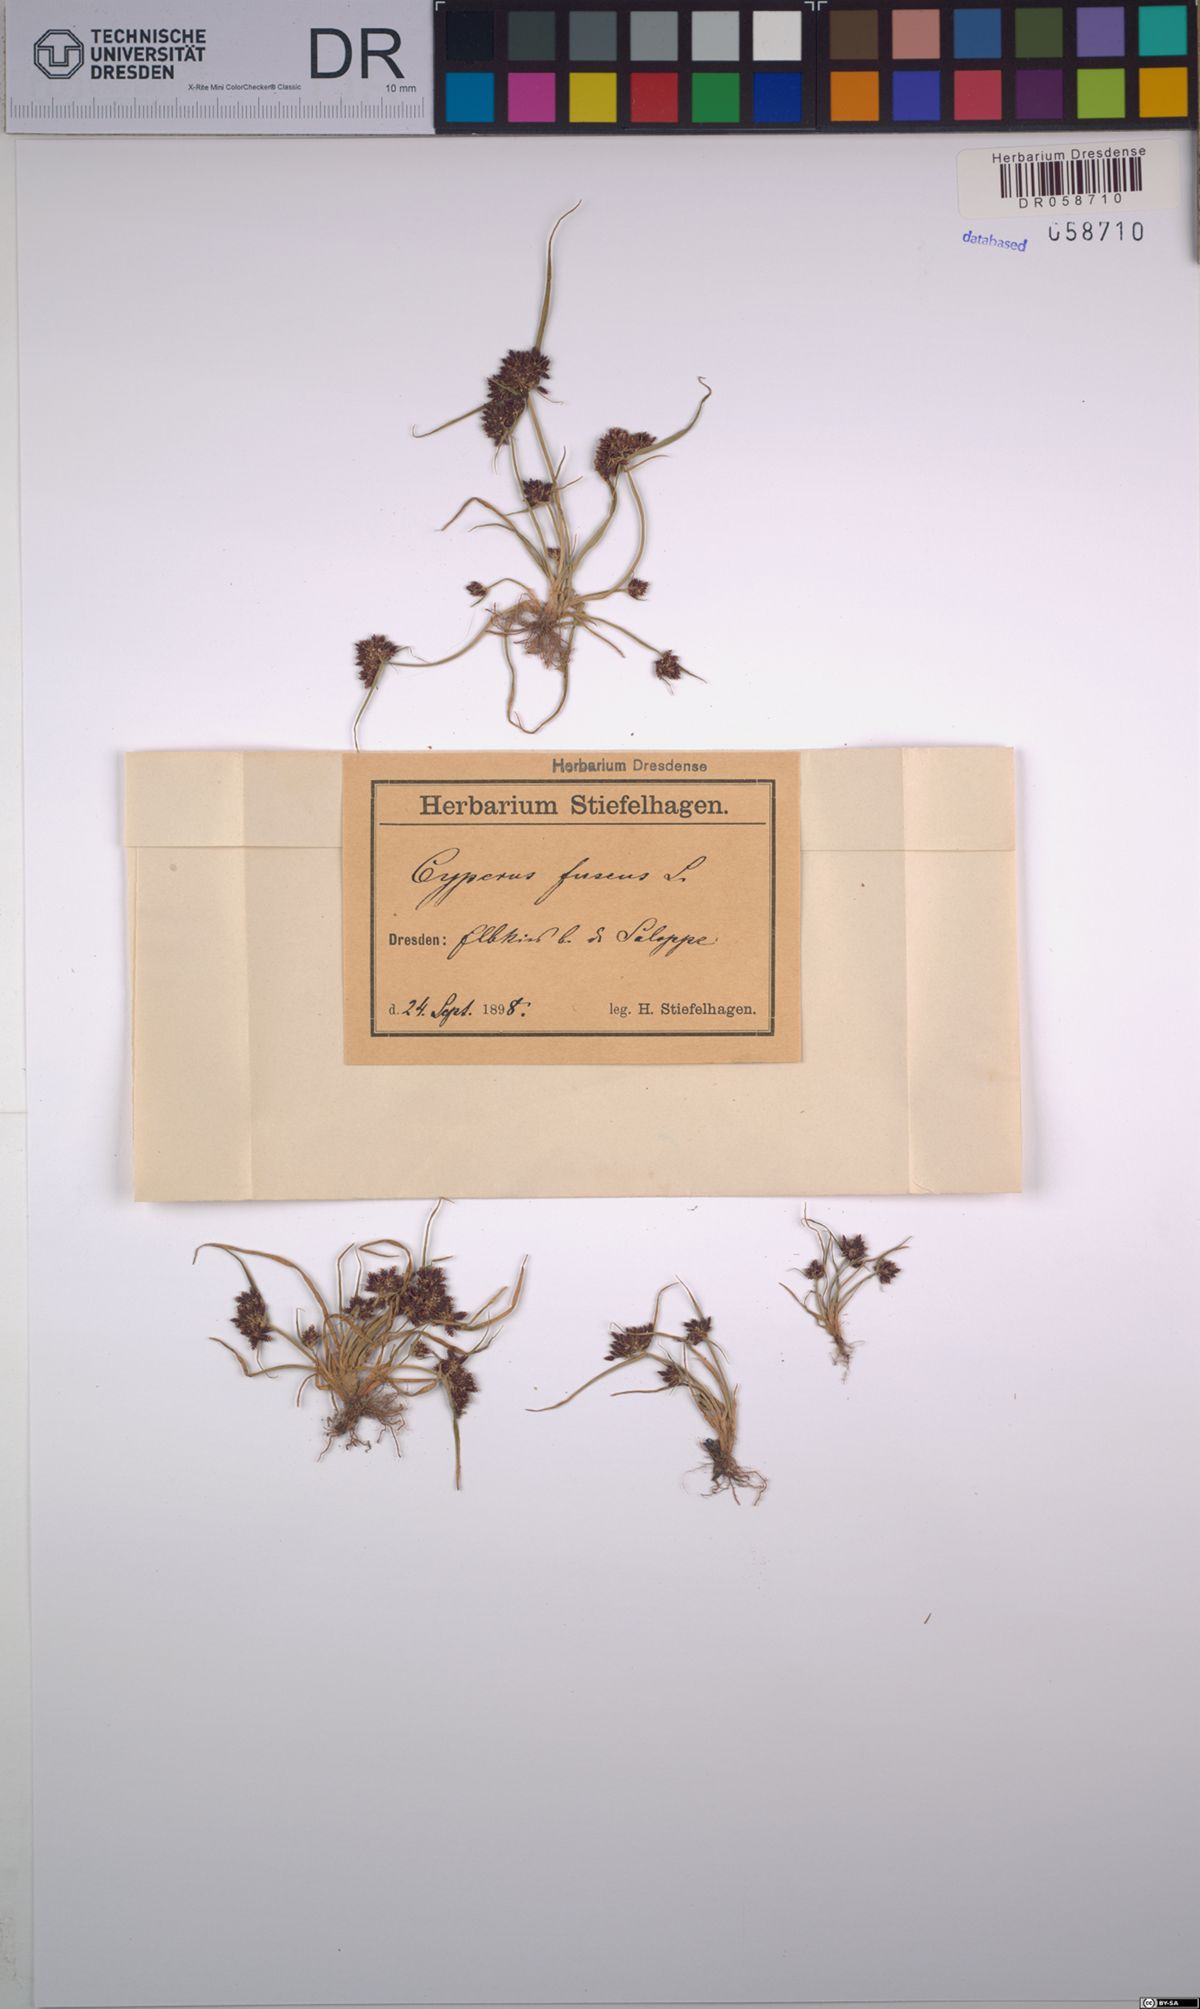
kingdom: Plantae
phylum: Tracheophyta
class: Liliopsida
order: Poales
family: Cyperaceae
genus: Cyperus
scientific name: Cyperus fuscus
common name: Brown galingale
